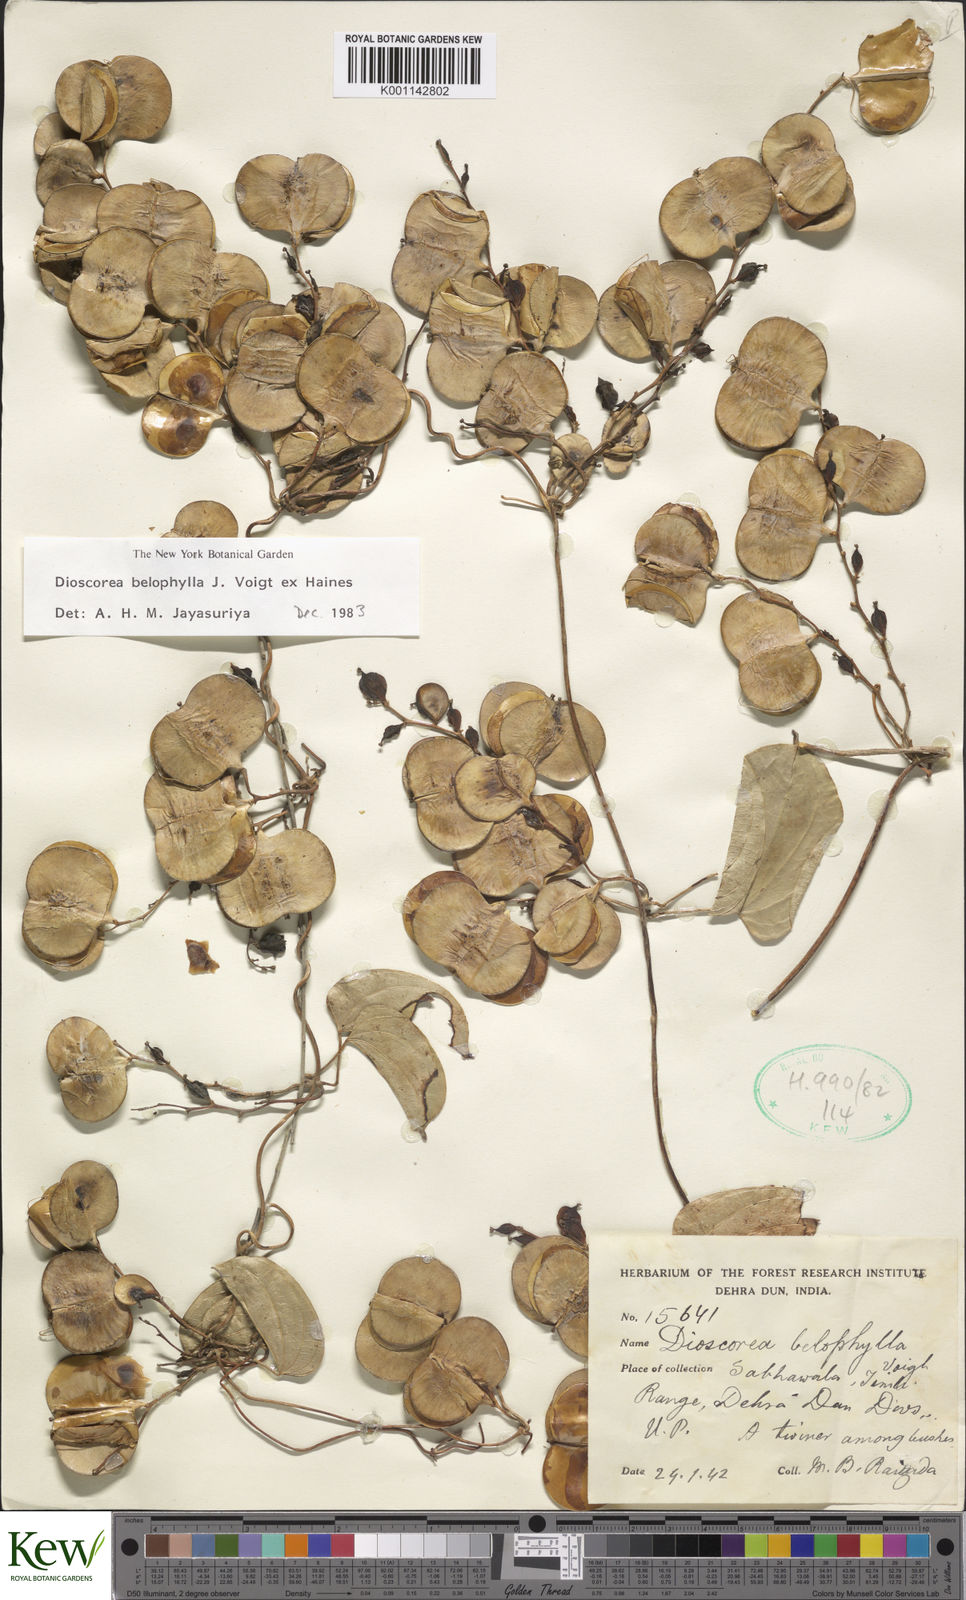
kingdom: Plantae
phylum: Tracheophyta
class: Liliopsida
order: Dioscoreales
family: Dioscoreaceae
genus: Dioscorea
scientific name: Dioscorea belophylla
